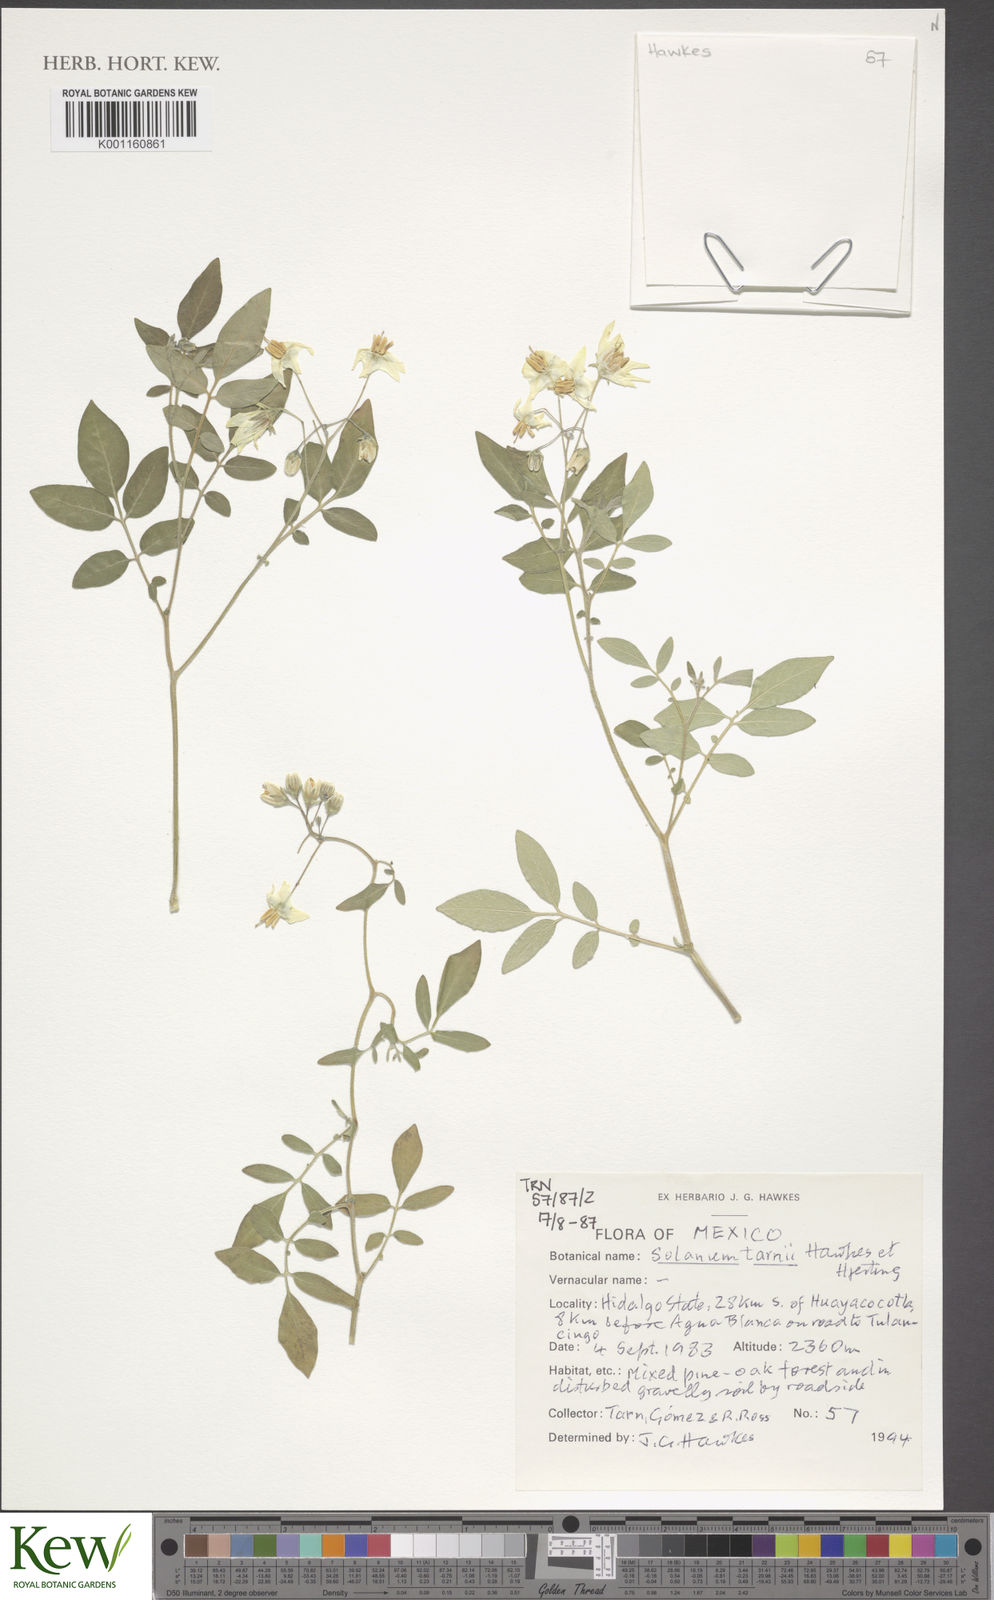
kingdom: Plantae
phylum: Tracheophyta
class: Magnoliopsida
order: Solanales
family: Solanaceae
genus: Solanum
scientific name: Solanum tarnii
